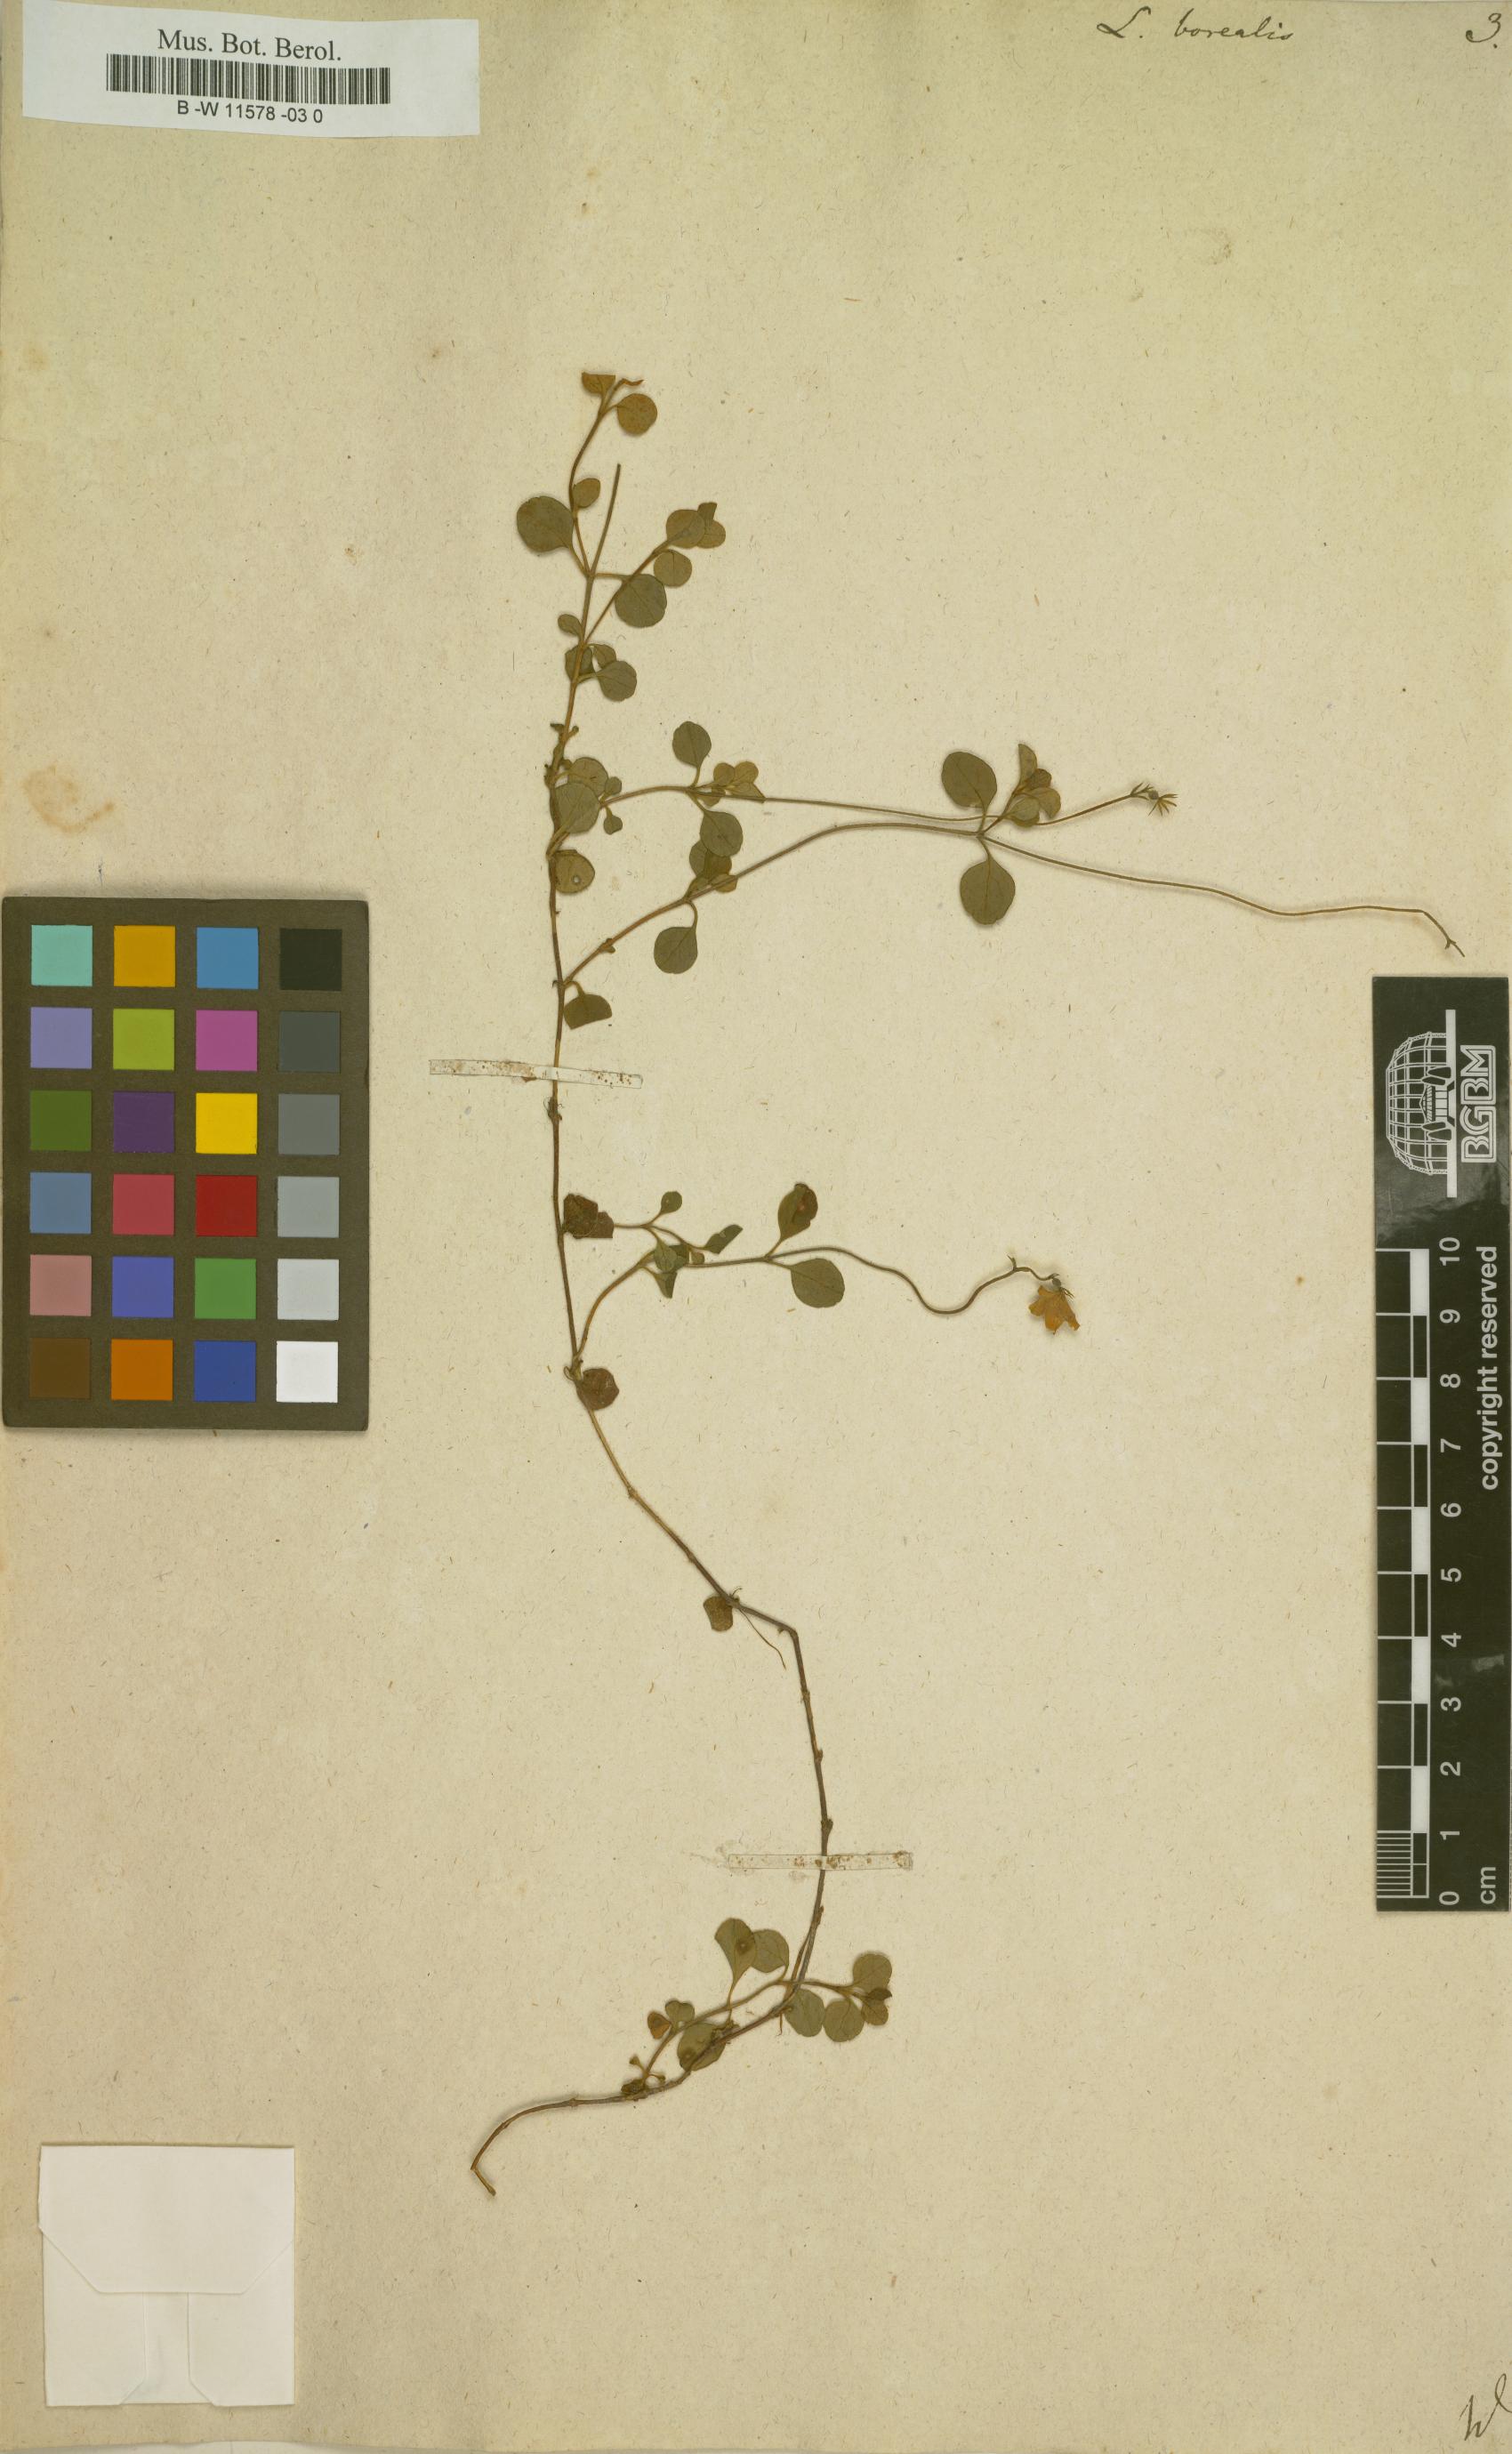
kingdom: Plantae
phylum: Tracheophyta
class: Magnoliopsida
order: Dipsacales
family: Caprifoliaceae
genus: Linnaea
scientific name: Linnaea borealis
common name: Twinflower
